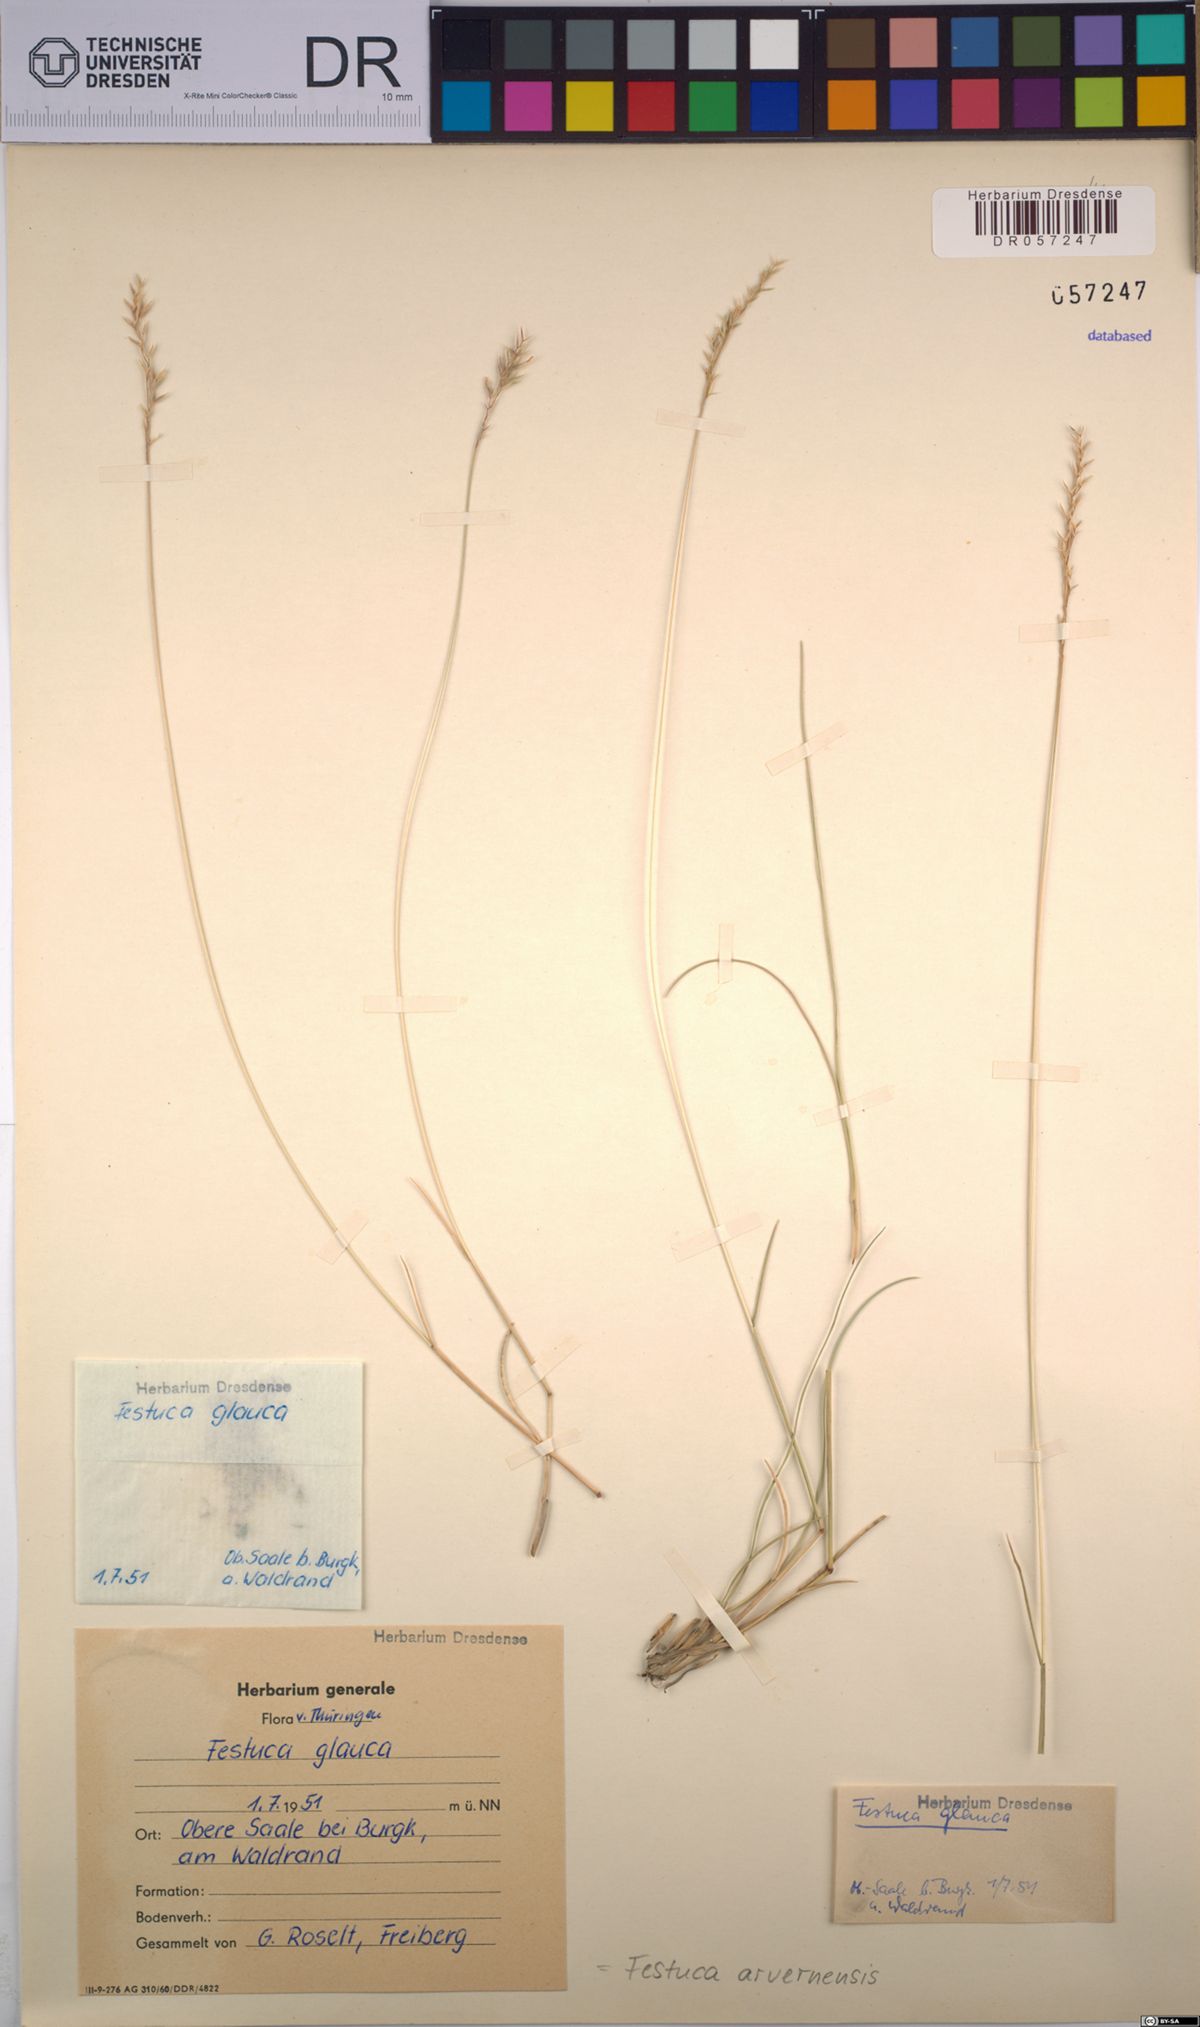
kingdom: Plantae
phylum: Tracheophyta
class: Liliopsida
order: Poales
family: Poaceae
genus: Festuca
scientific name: Festuca arvernensis
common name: Field fescue
